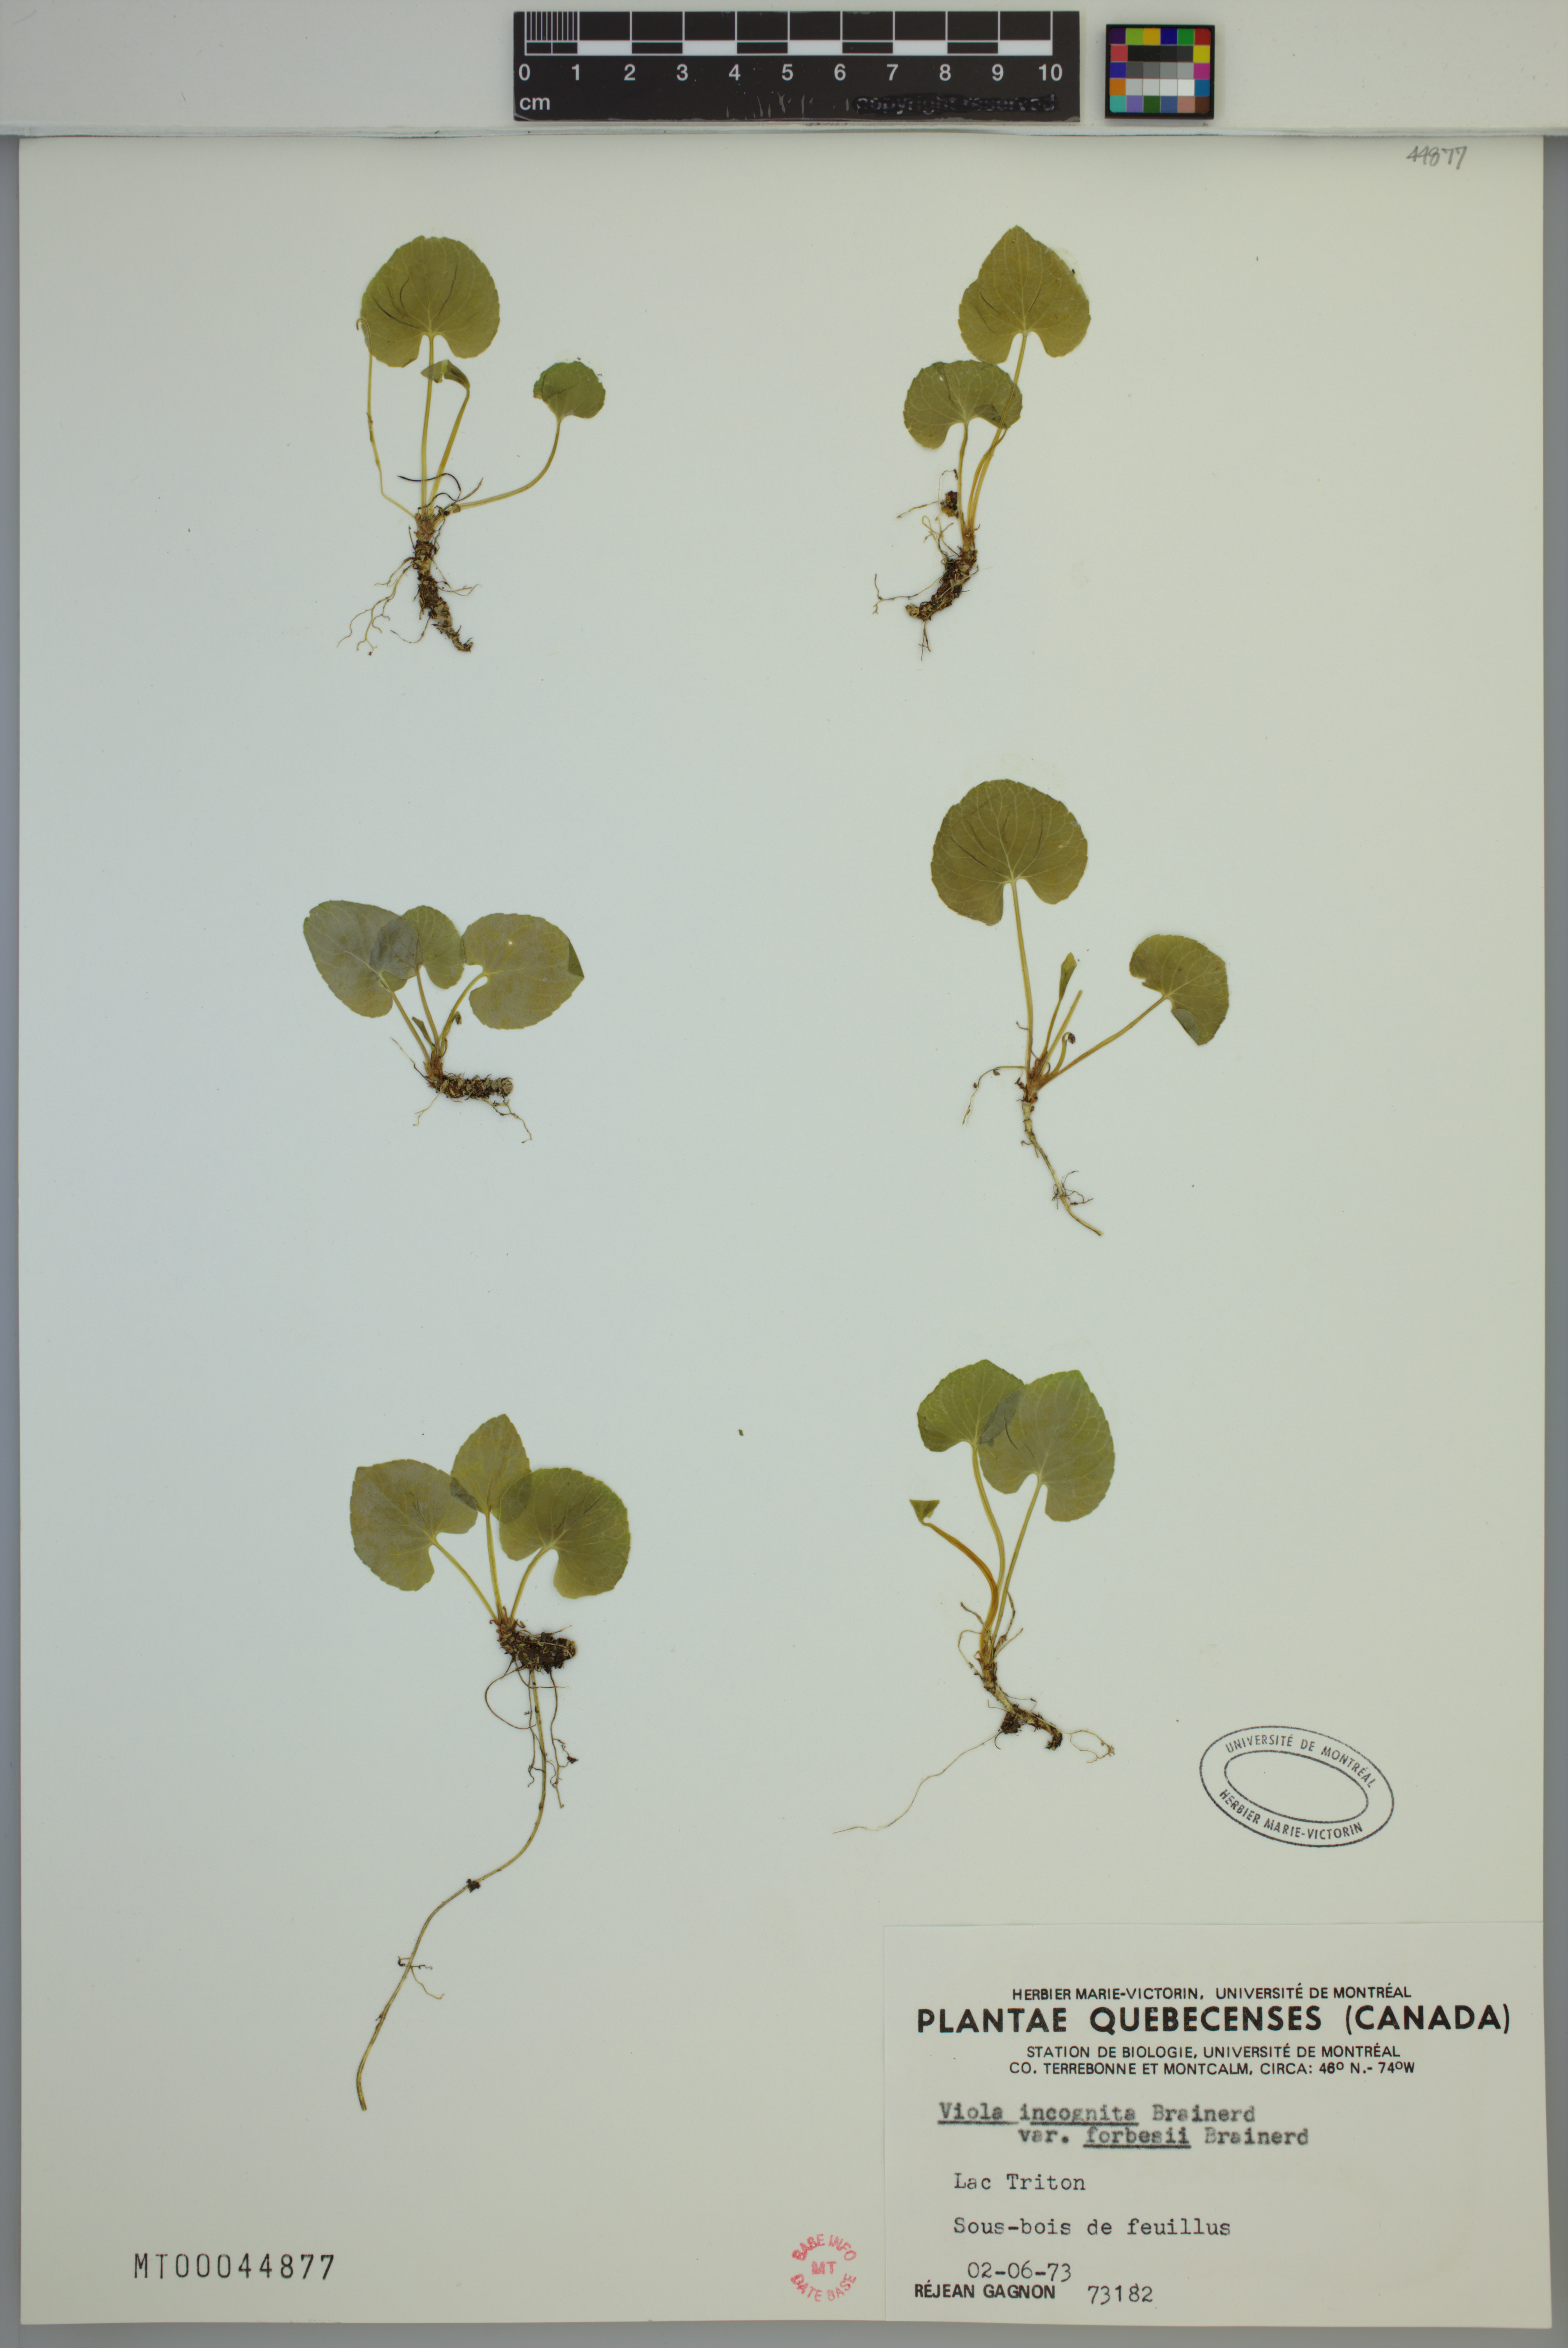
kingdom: Plantae
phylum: Tracheophyta
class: Magnoliopsida
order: Malpighiales
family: Violaceae
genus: Viola
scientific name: Viola blanda
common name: Sweet white violet
